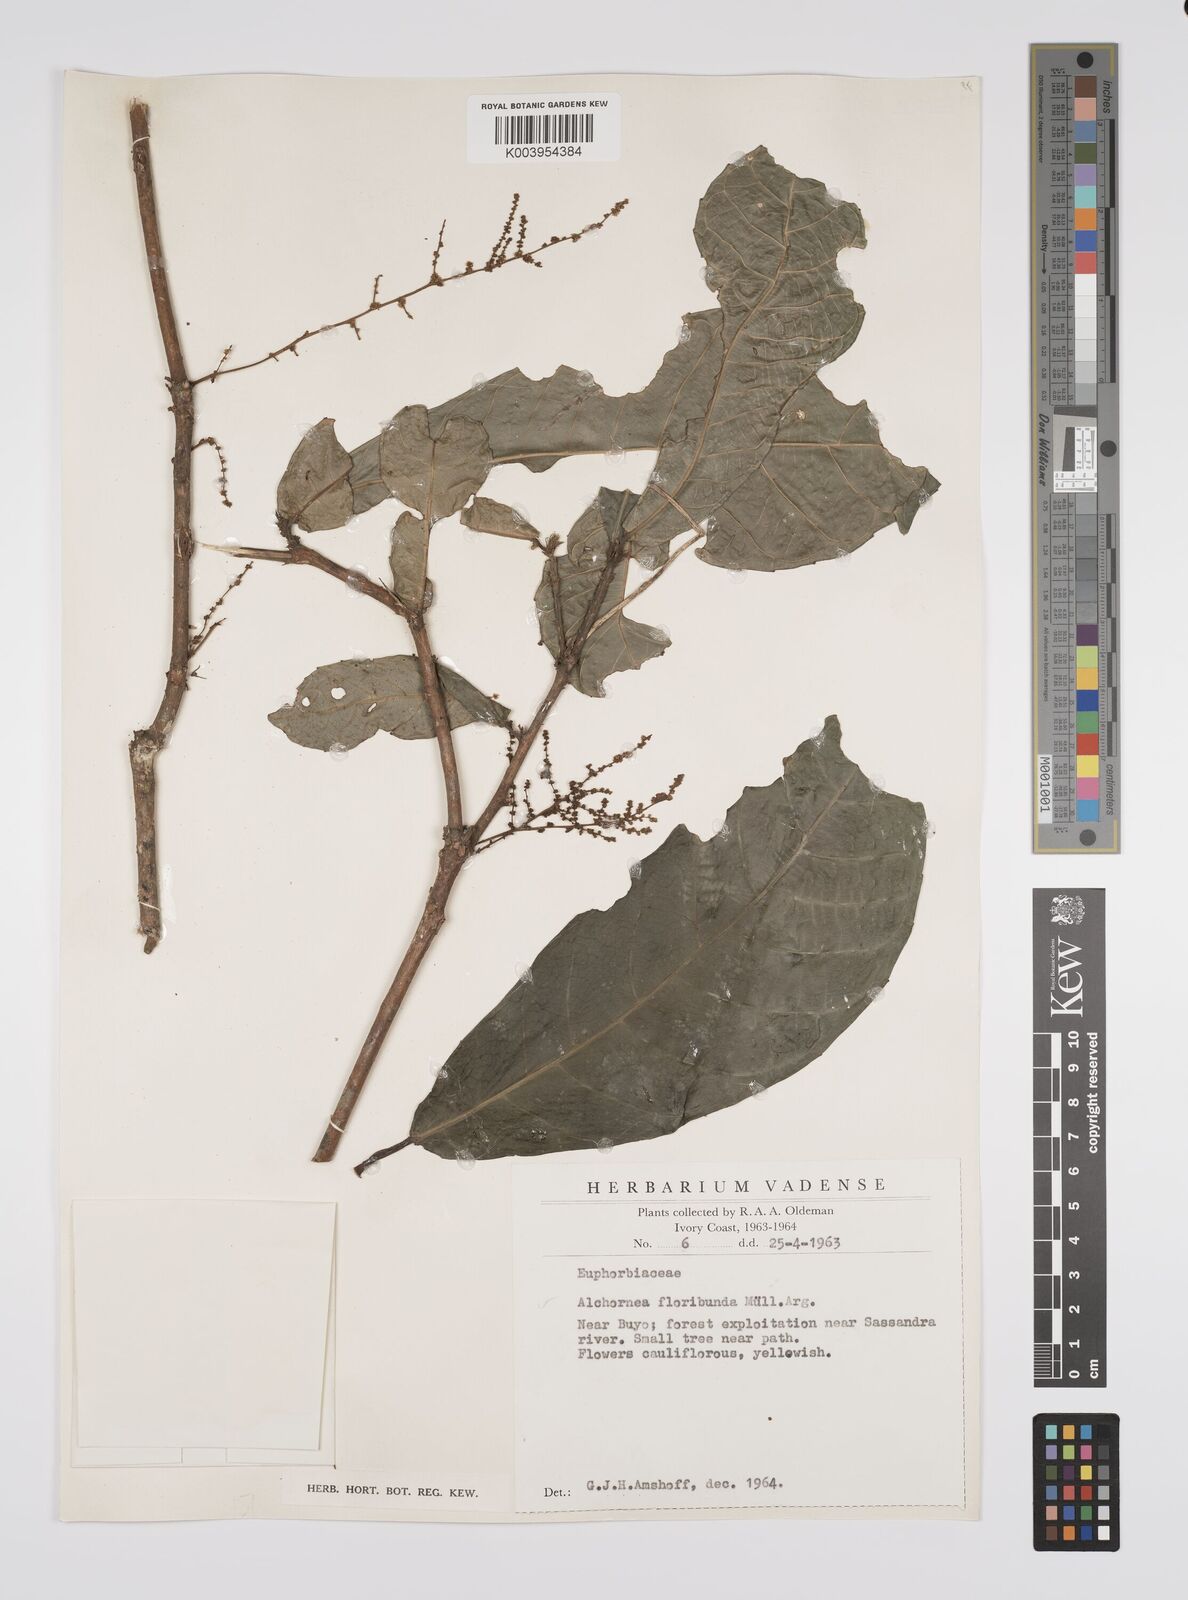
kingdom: Plantae
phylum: Tracheophyta
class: Magnoliopsida
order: Malpighiales
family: Euphorbiaceae
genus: Alchornea
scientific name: Alchornea floribunda
